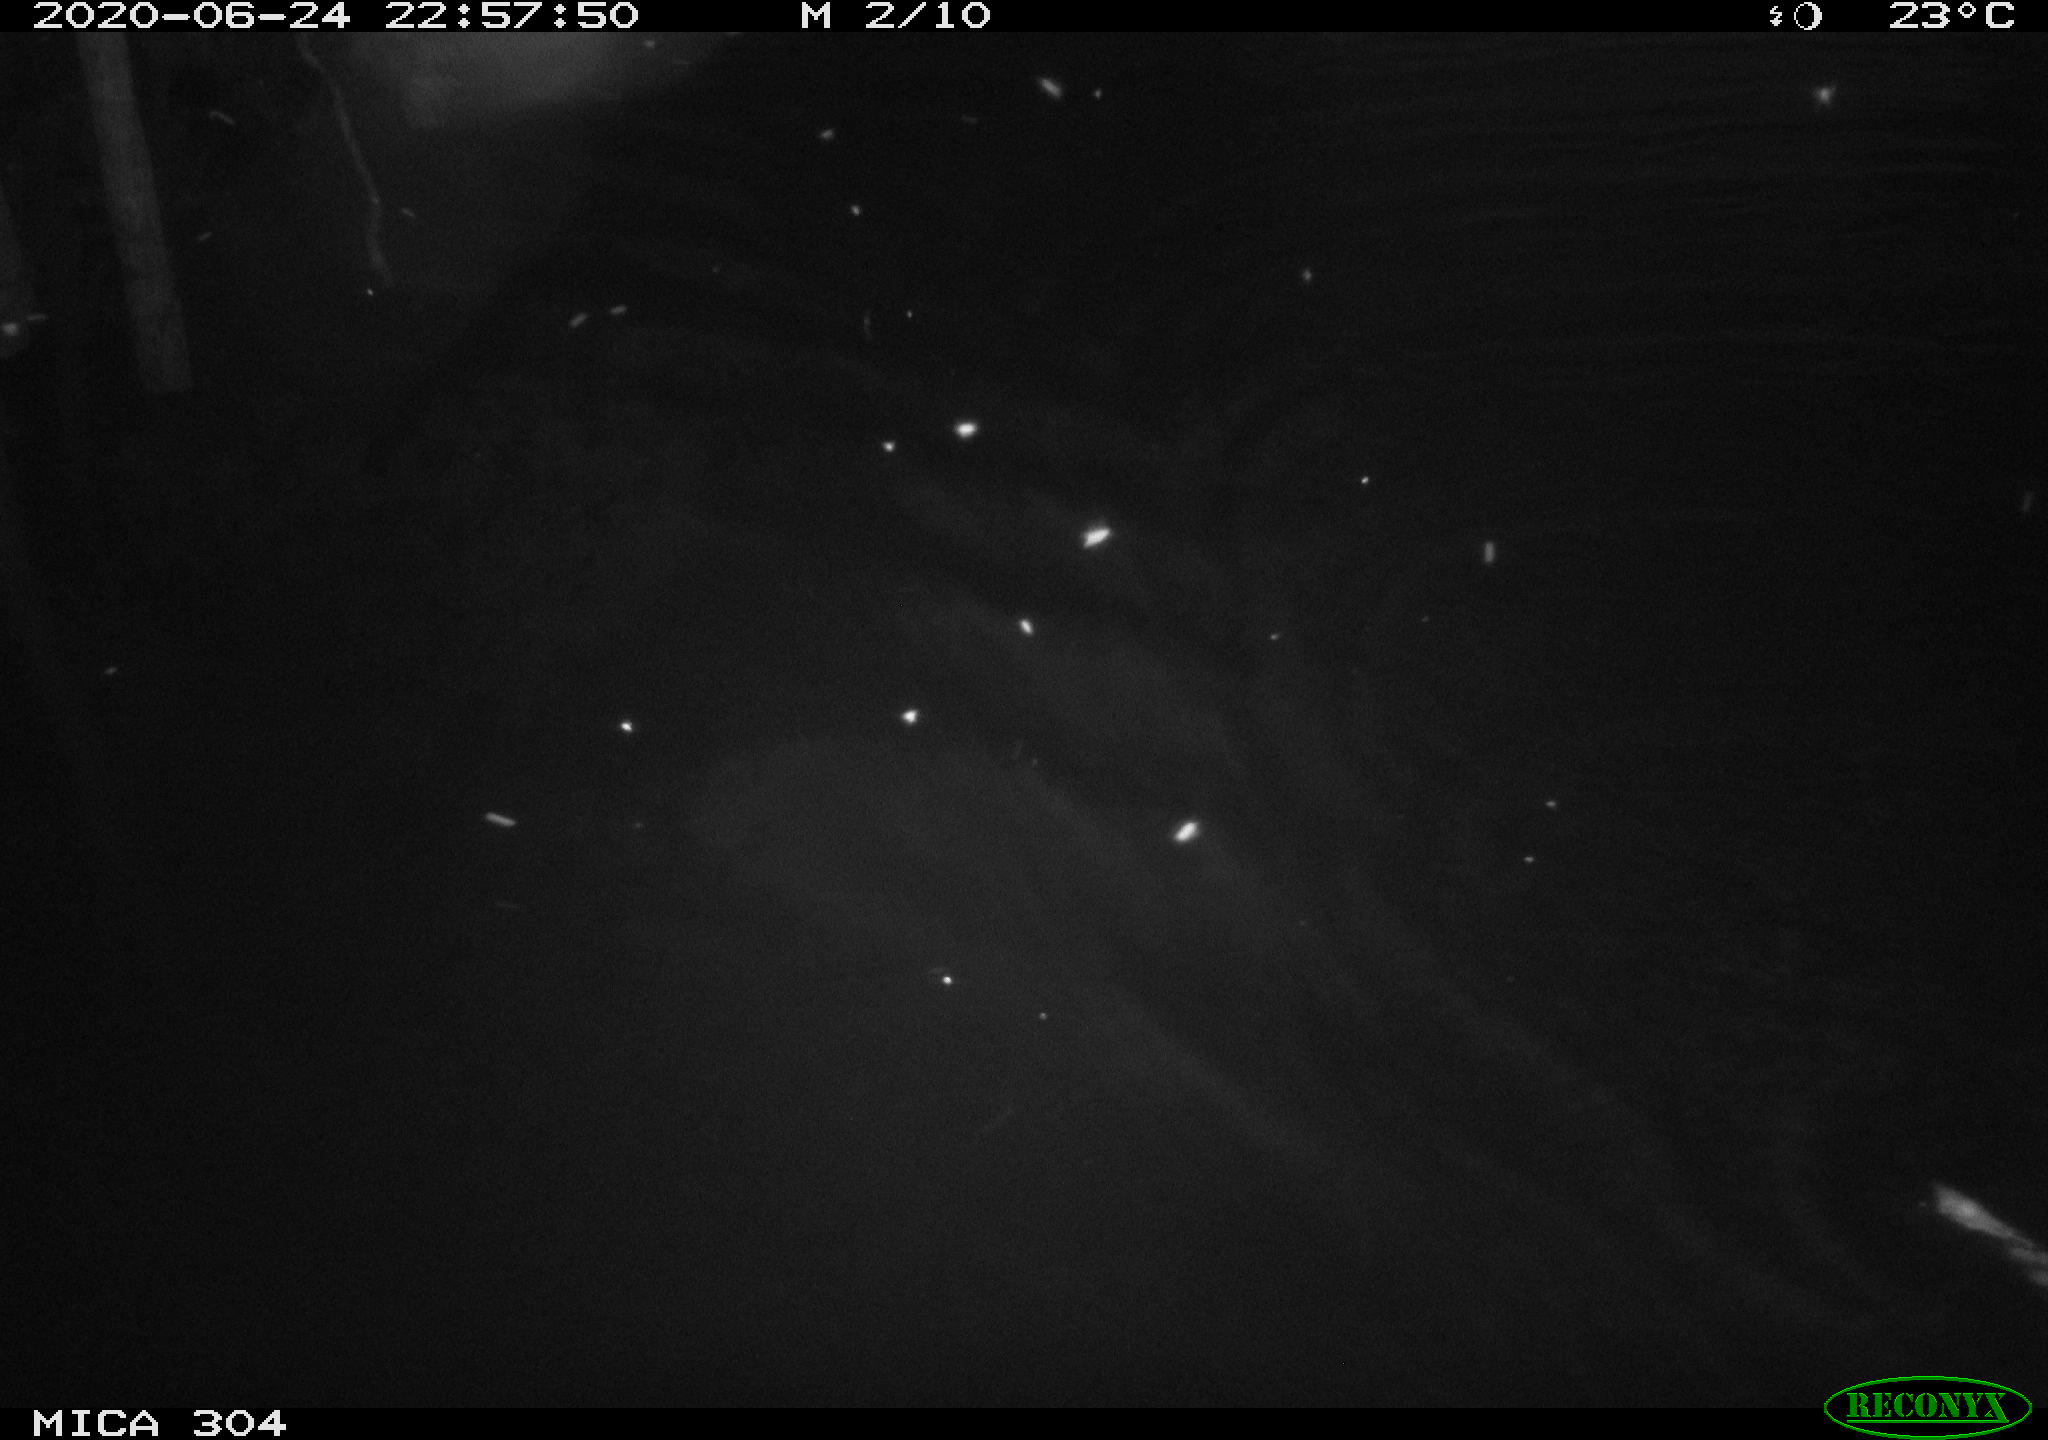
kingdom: Animalia
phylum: Chordata
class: Mammalia
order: Rodentia
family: Cricetidae
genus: Ondatra
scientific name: Ondatra zibethicus
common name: Muskrat
